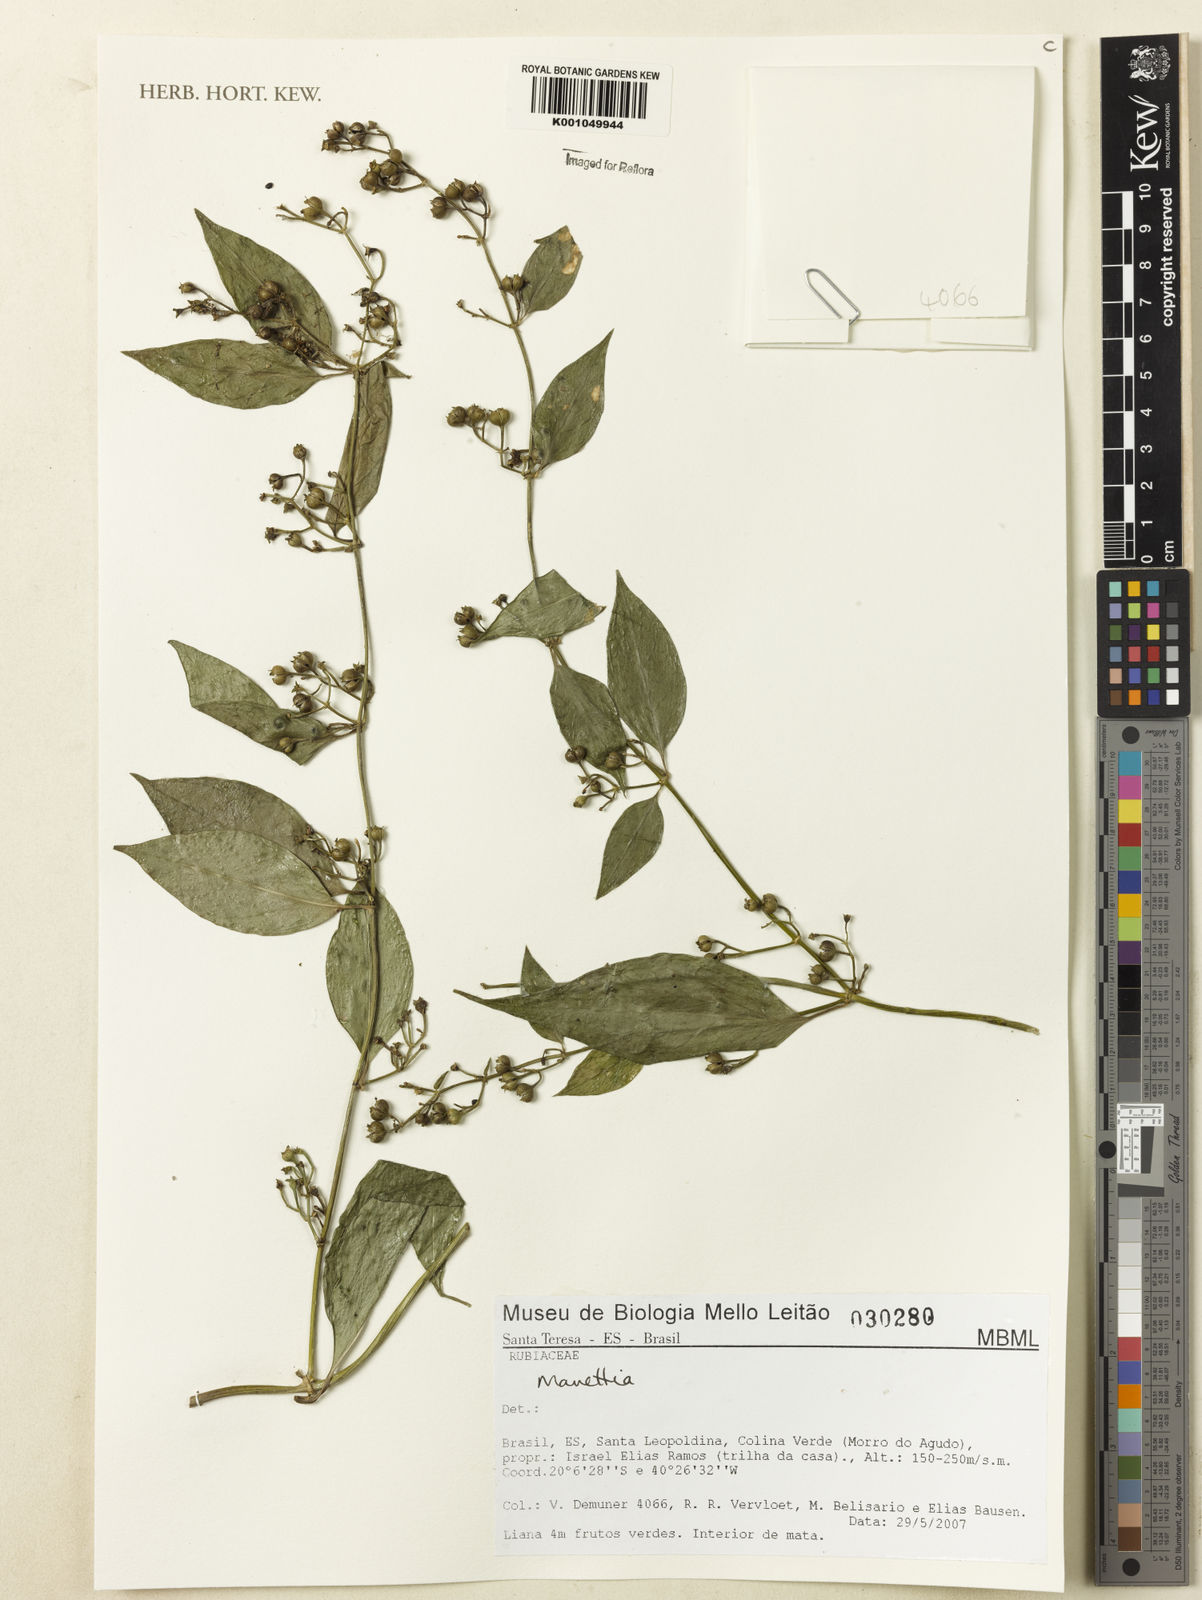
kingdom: Plantae
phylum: Tracheophyta
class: Magnoliopsida
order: Gentianales
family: Rubiaceae
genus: Manettia
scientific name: Manettia
